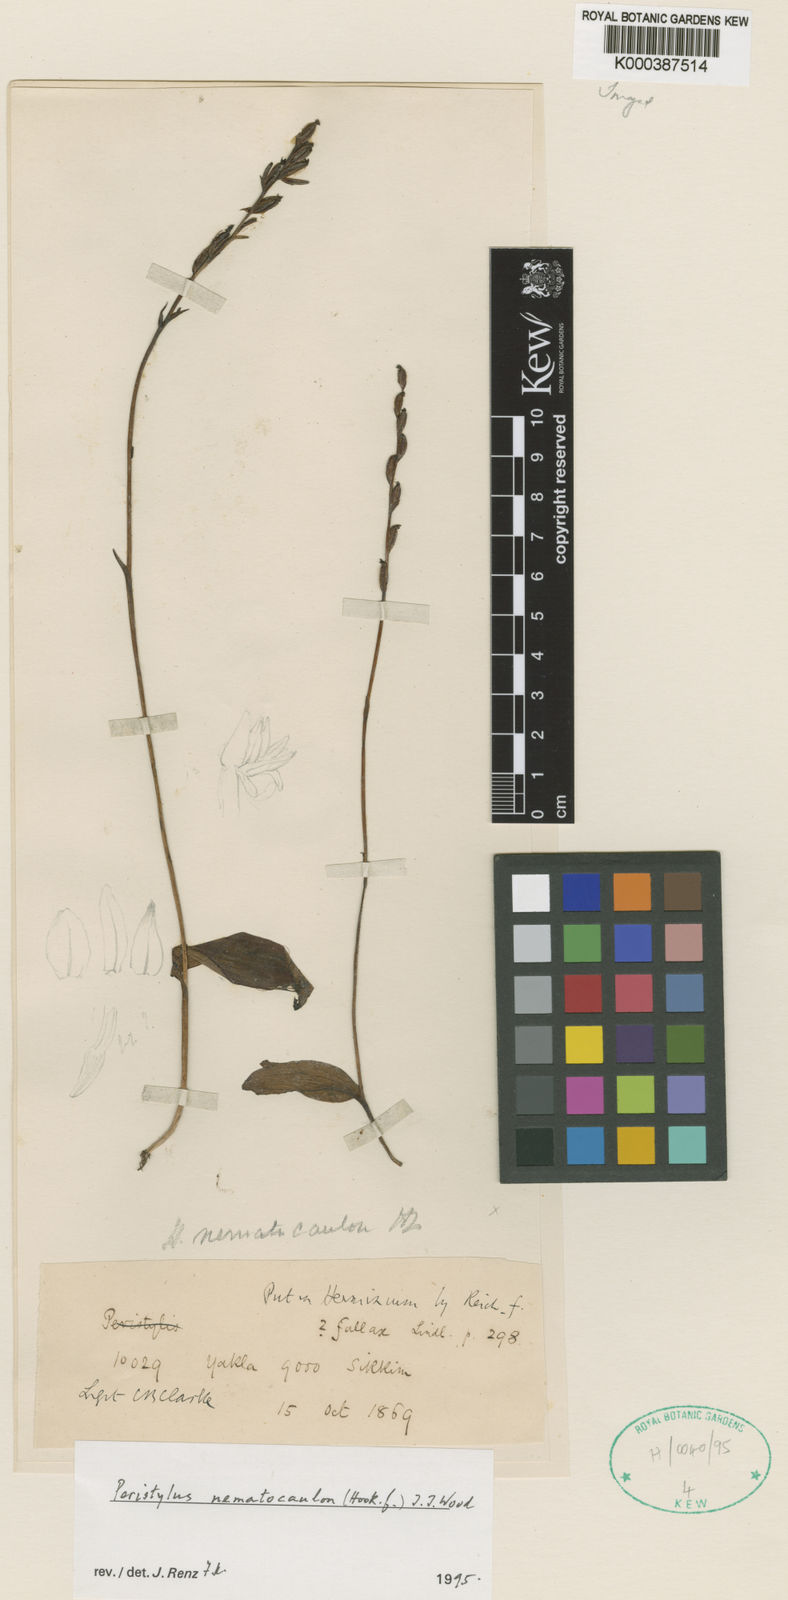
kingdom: Plantae
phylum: Tracheophyta
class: Liliopsida
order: Asparagales
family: Orchidaceae
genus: Peristylus
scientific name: Peristylus
